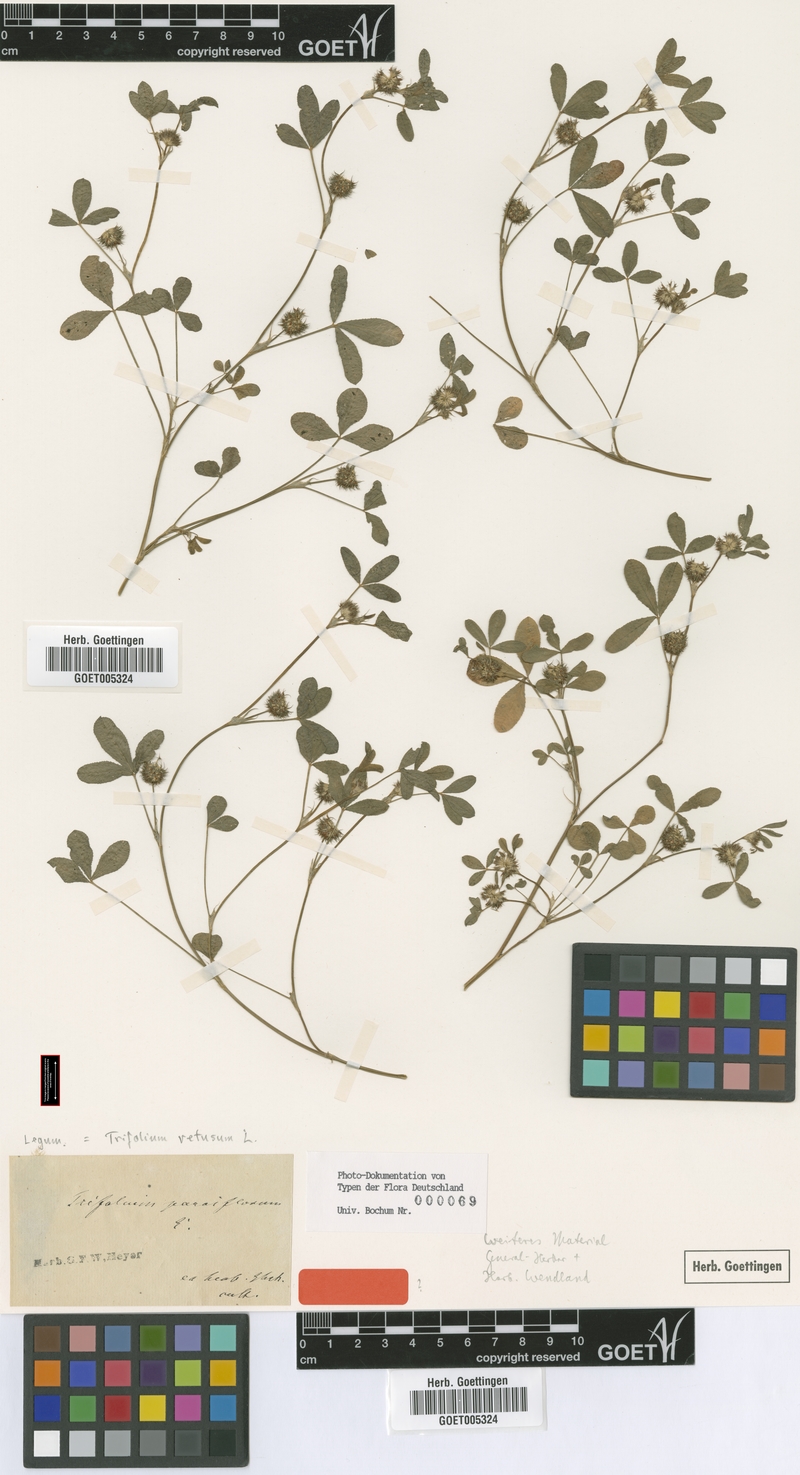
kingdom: Plantae
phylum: Tracheophyta
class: Magnoliopsida
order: Fabales
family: Fabaceae
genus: Trifolium
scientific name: Trifolium retusum
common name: Teasel clover
